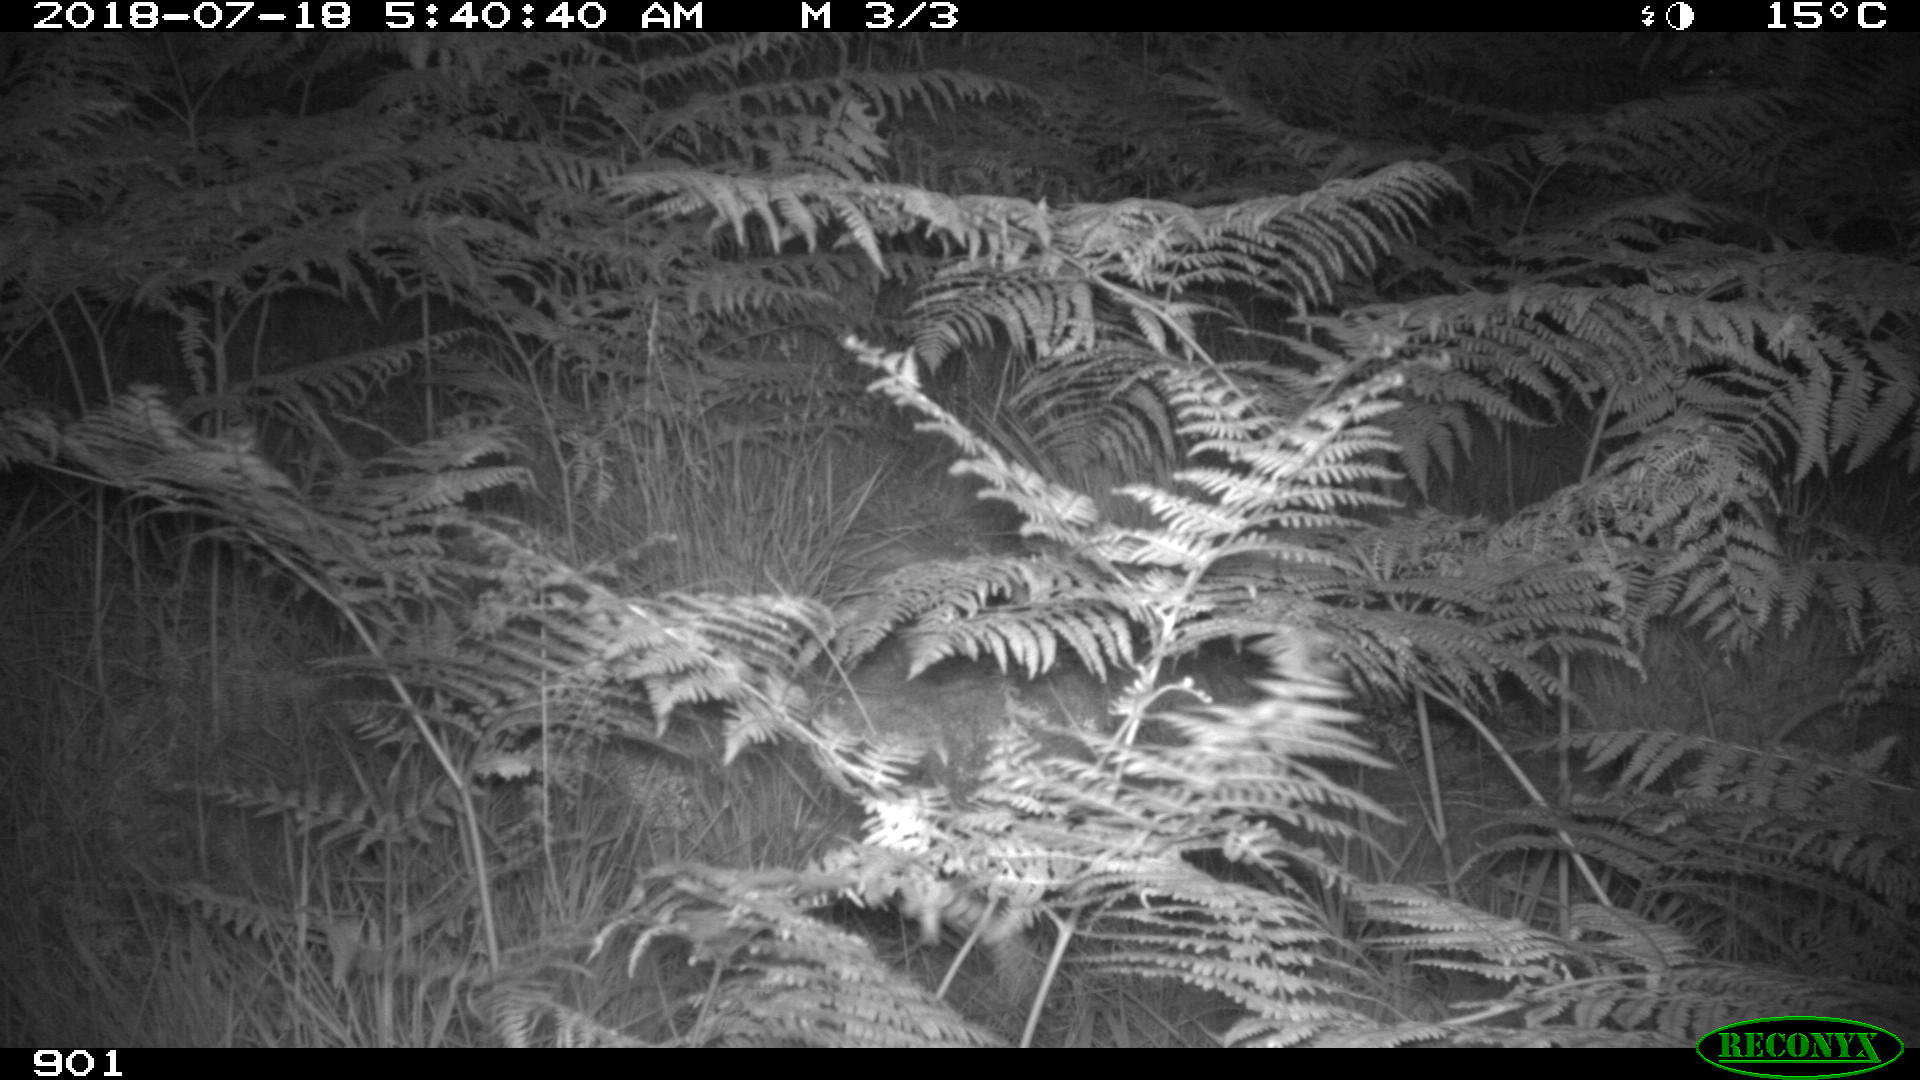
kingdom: Animalia
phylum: Chordata
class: Mammalia
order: Artiodactyla
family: Cervidae
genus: Capreolus
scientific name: Capreolus capreolus
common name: Western roe deer
